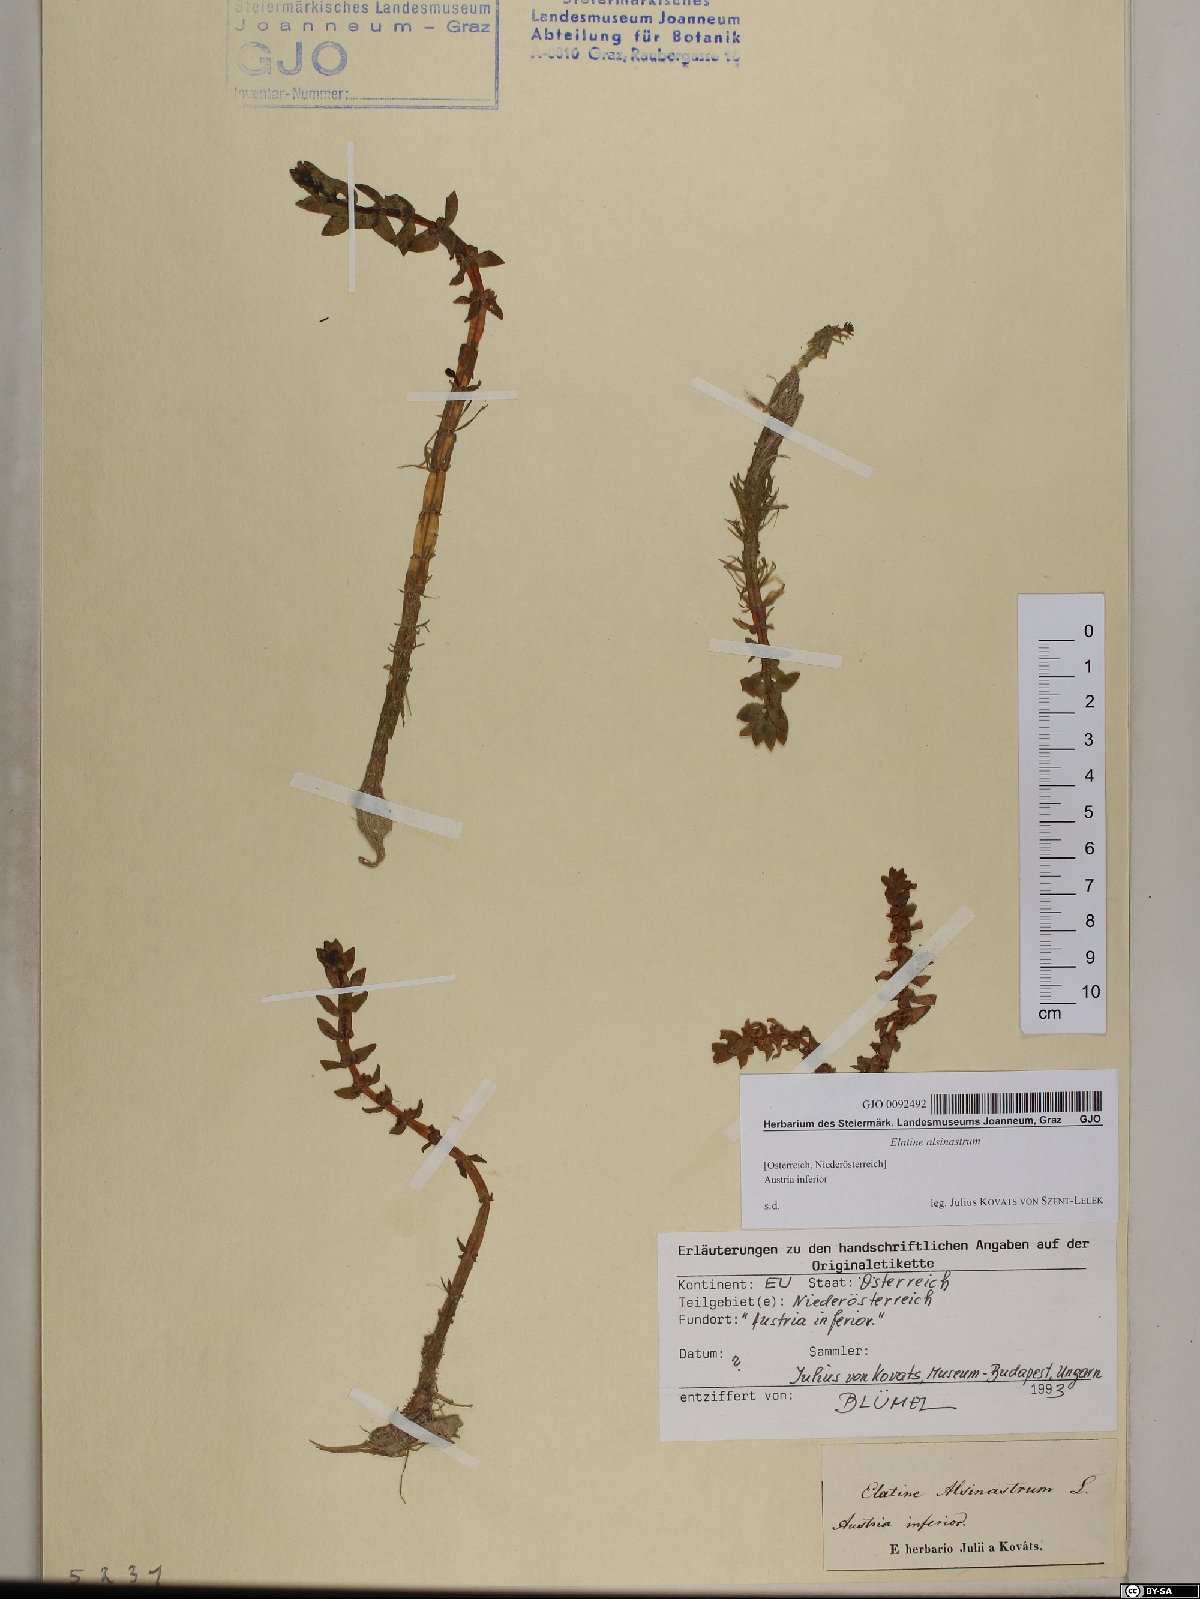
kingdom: Plantae
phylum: Tracheophyta
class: Magnoliopsida
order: Malpighiales
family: Elatinaceae
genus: Elatine
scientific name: Elatine alsinastrum
